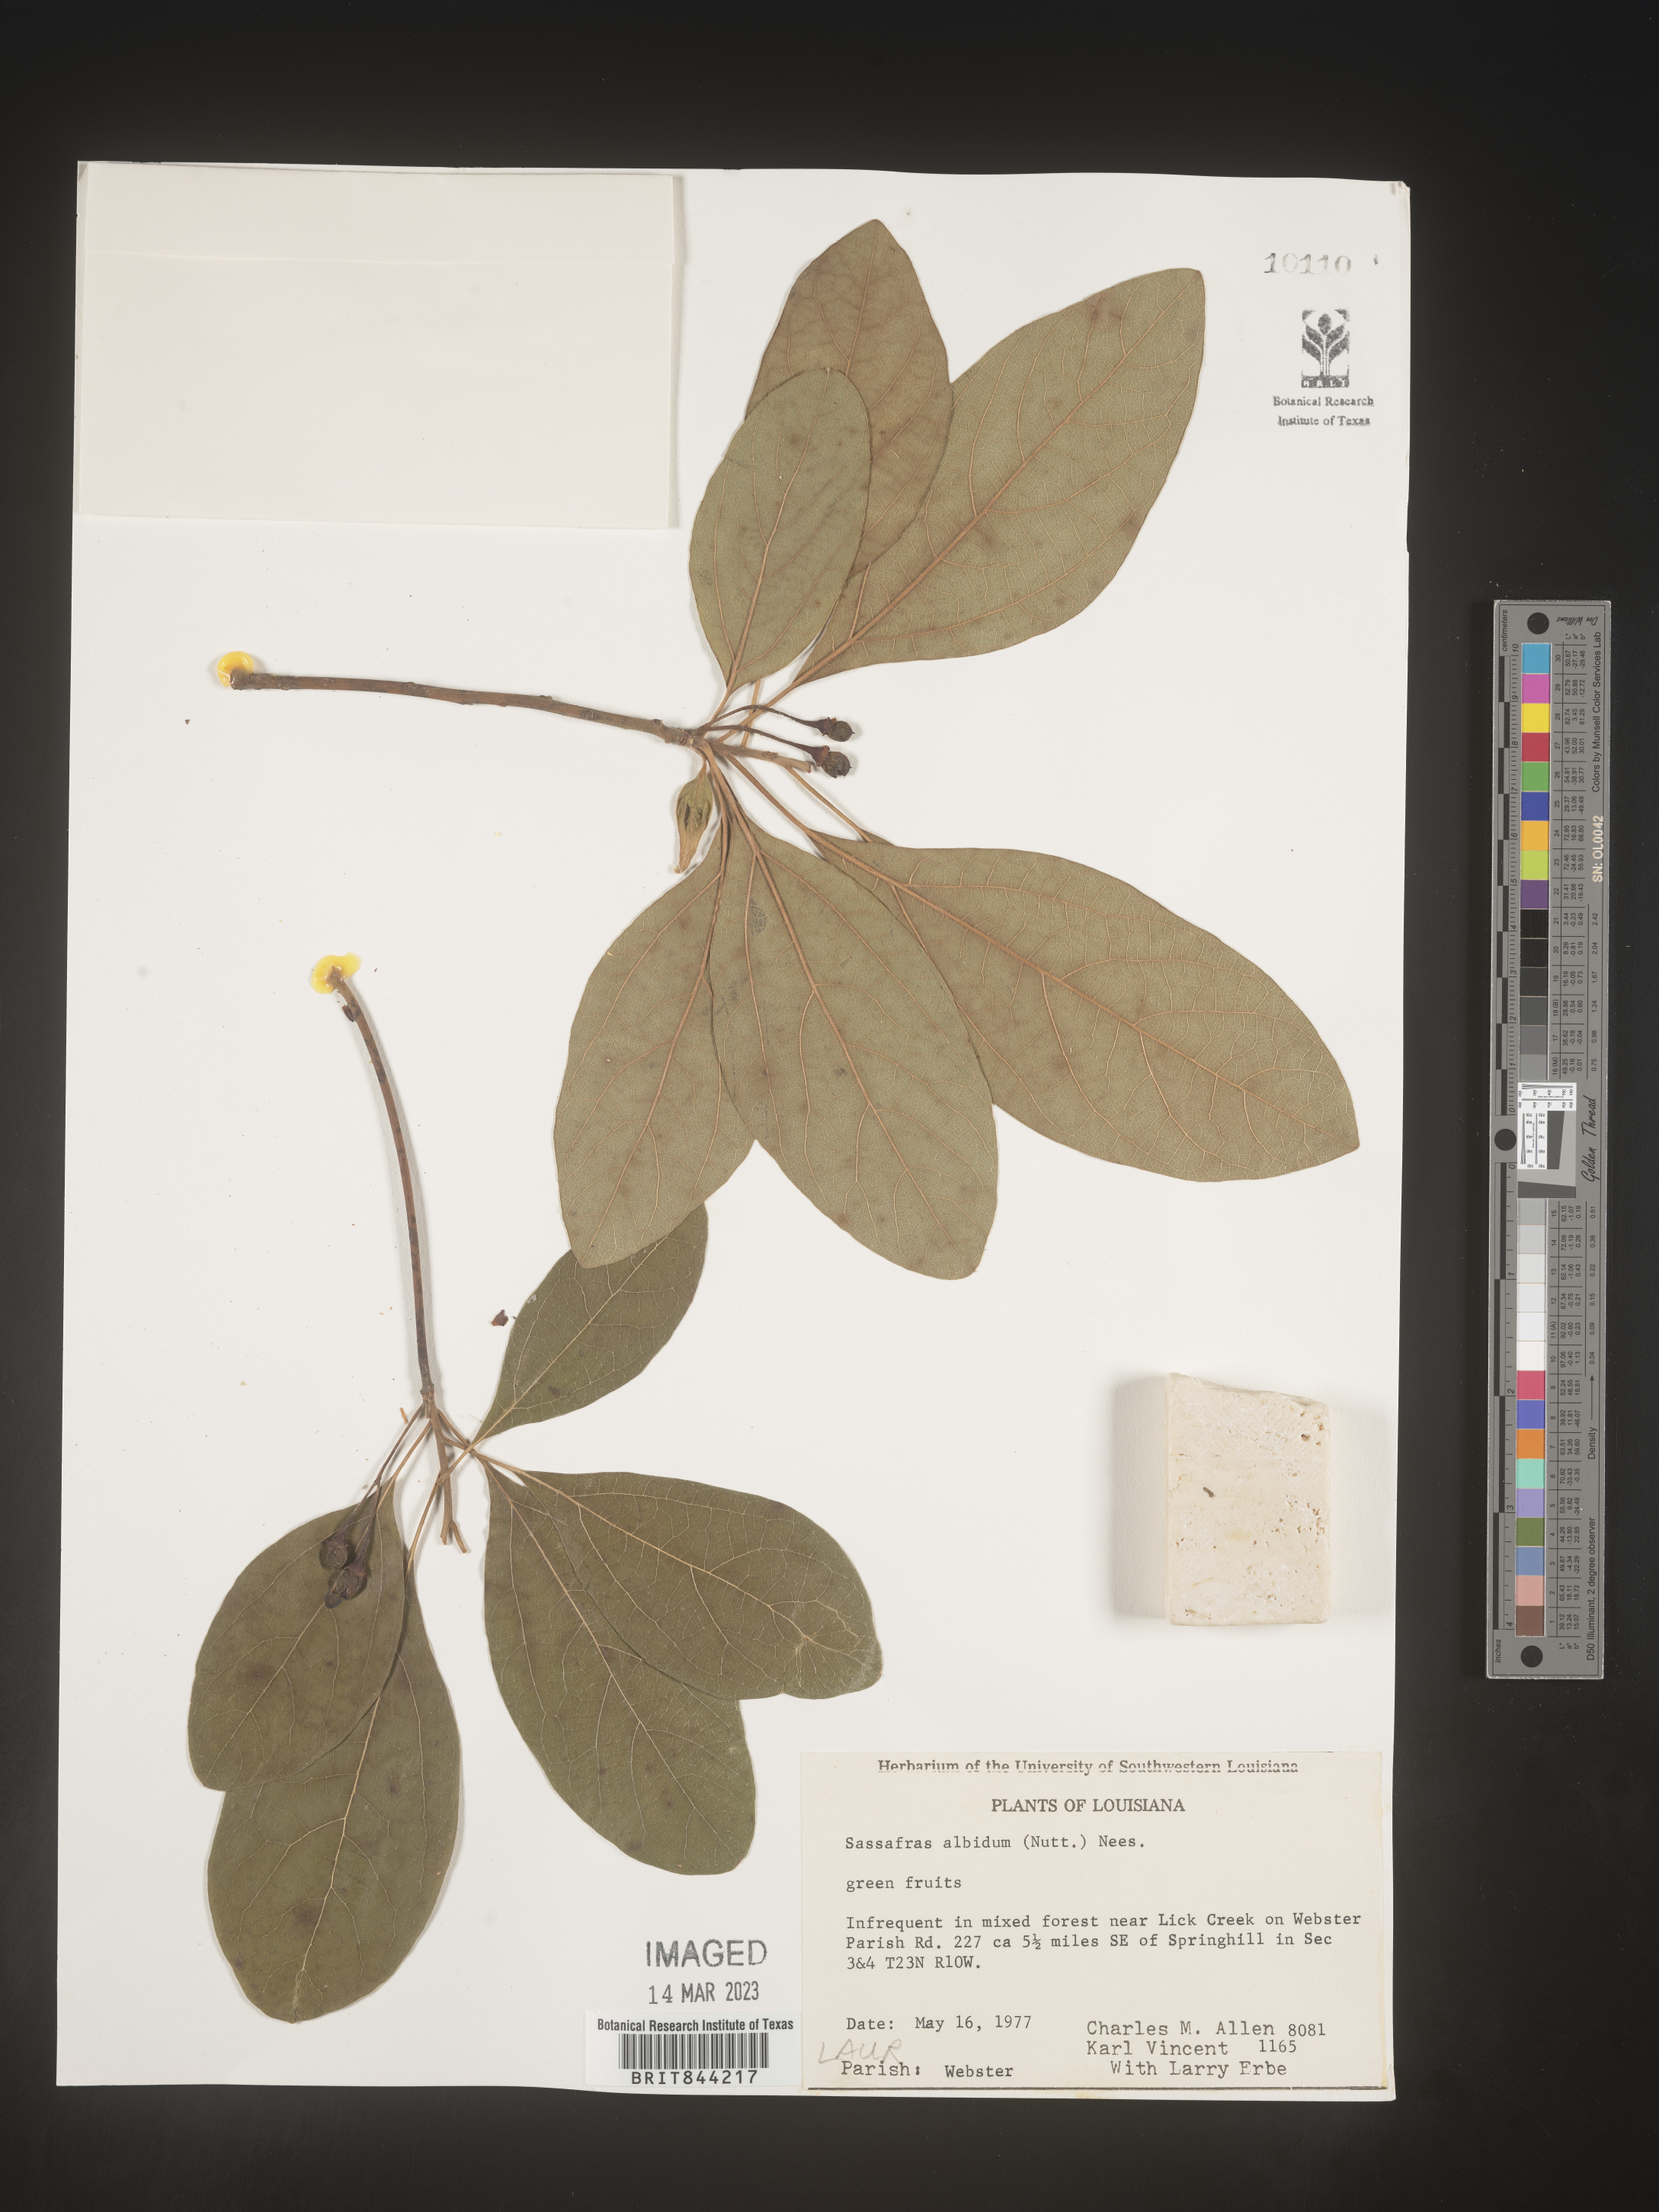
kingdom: Plantae
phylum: Tracheophyta
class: Magnoliopsida
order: Laurales
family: Lauraceae
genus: Sassafras
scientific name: Sassafras albidum
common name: Sassafras
